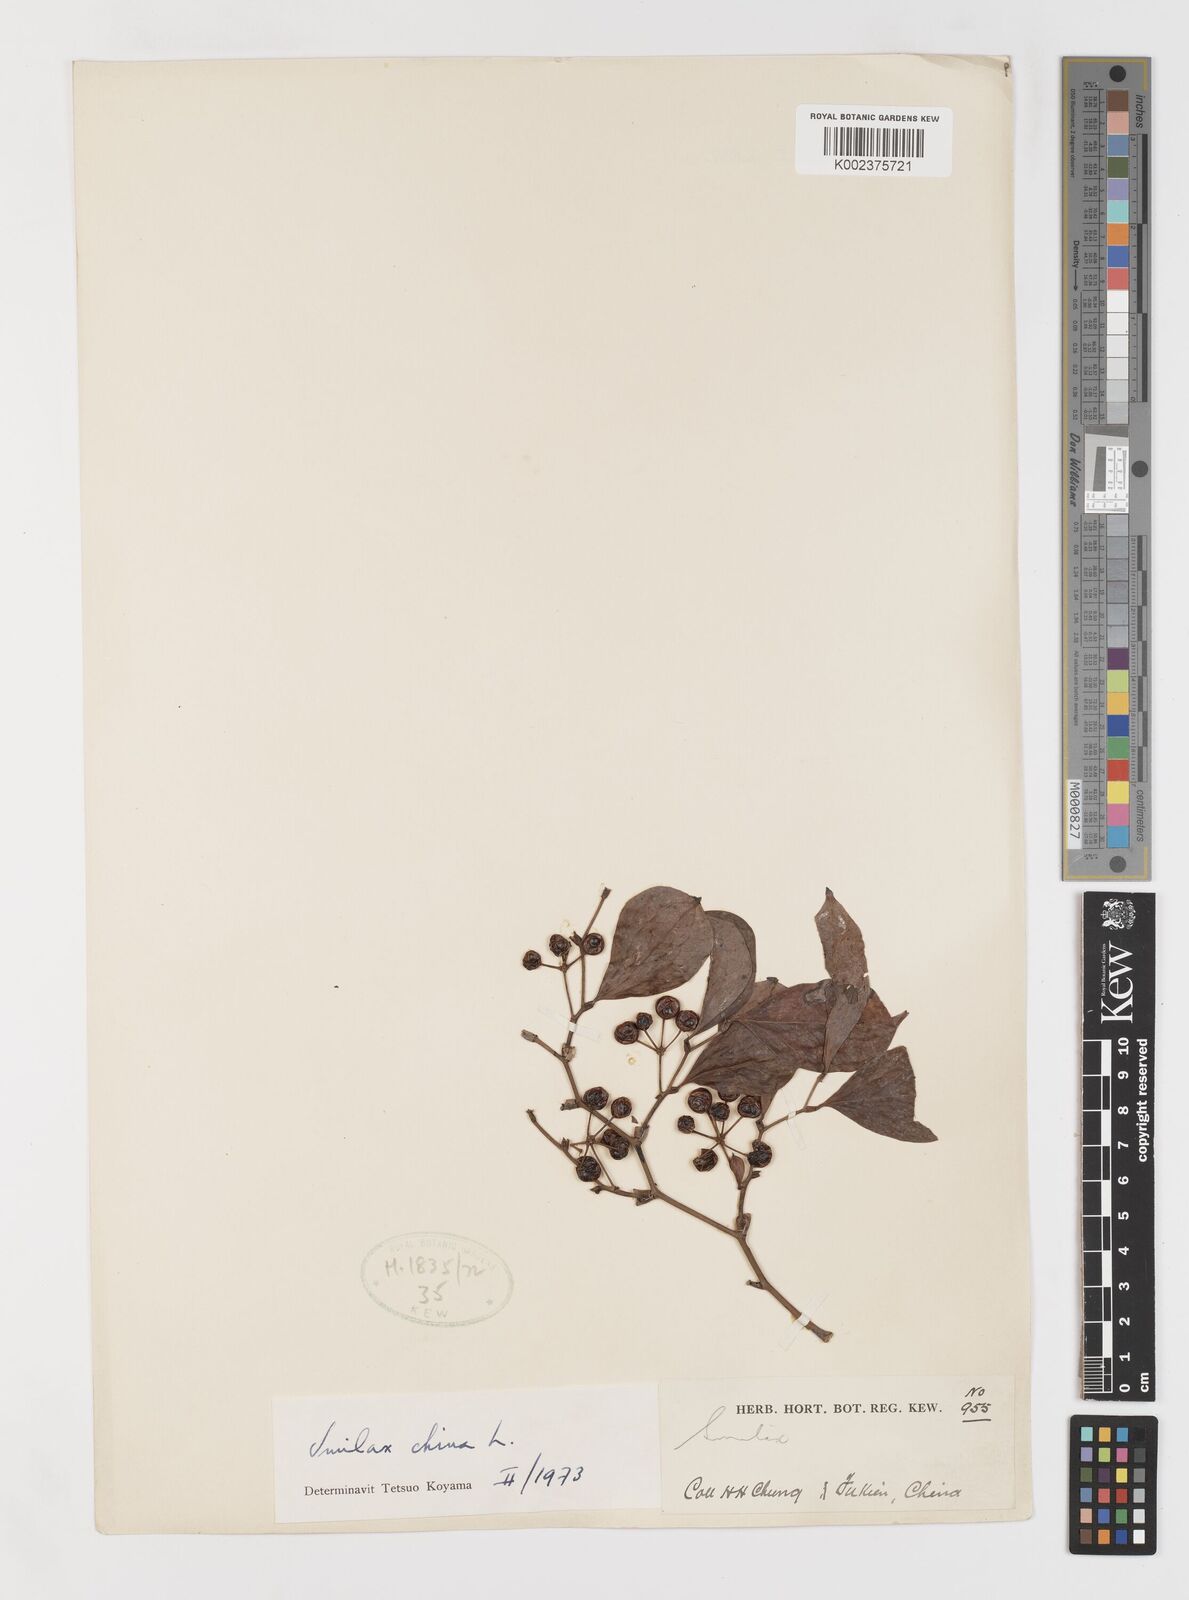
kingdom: Plantae
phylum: Tracheophyta
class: Liliopsida
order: Liliales
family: Smilacaceae
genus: Smilax
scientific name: Smilax china
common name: Chinaroot
